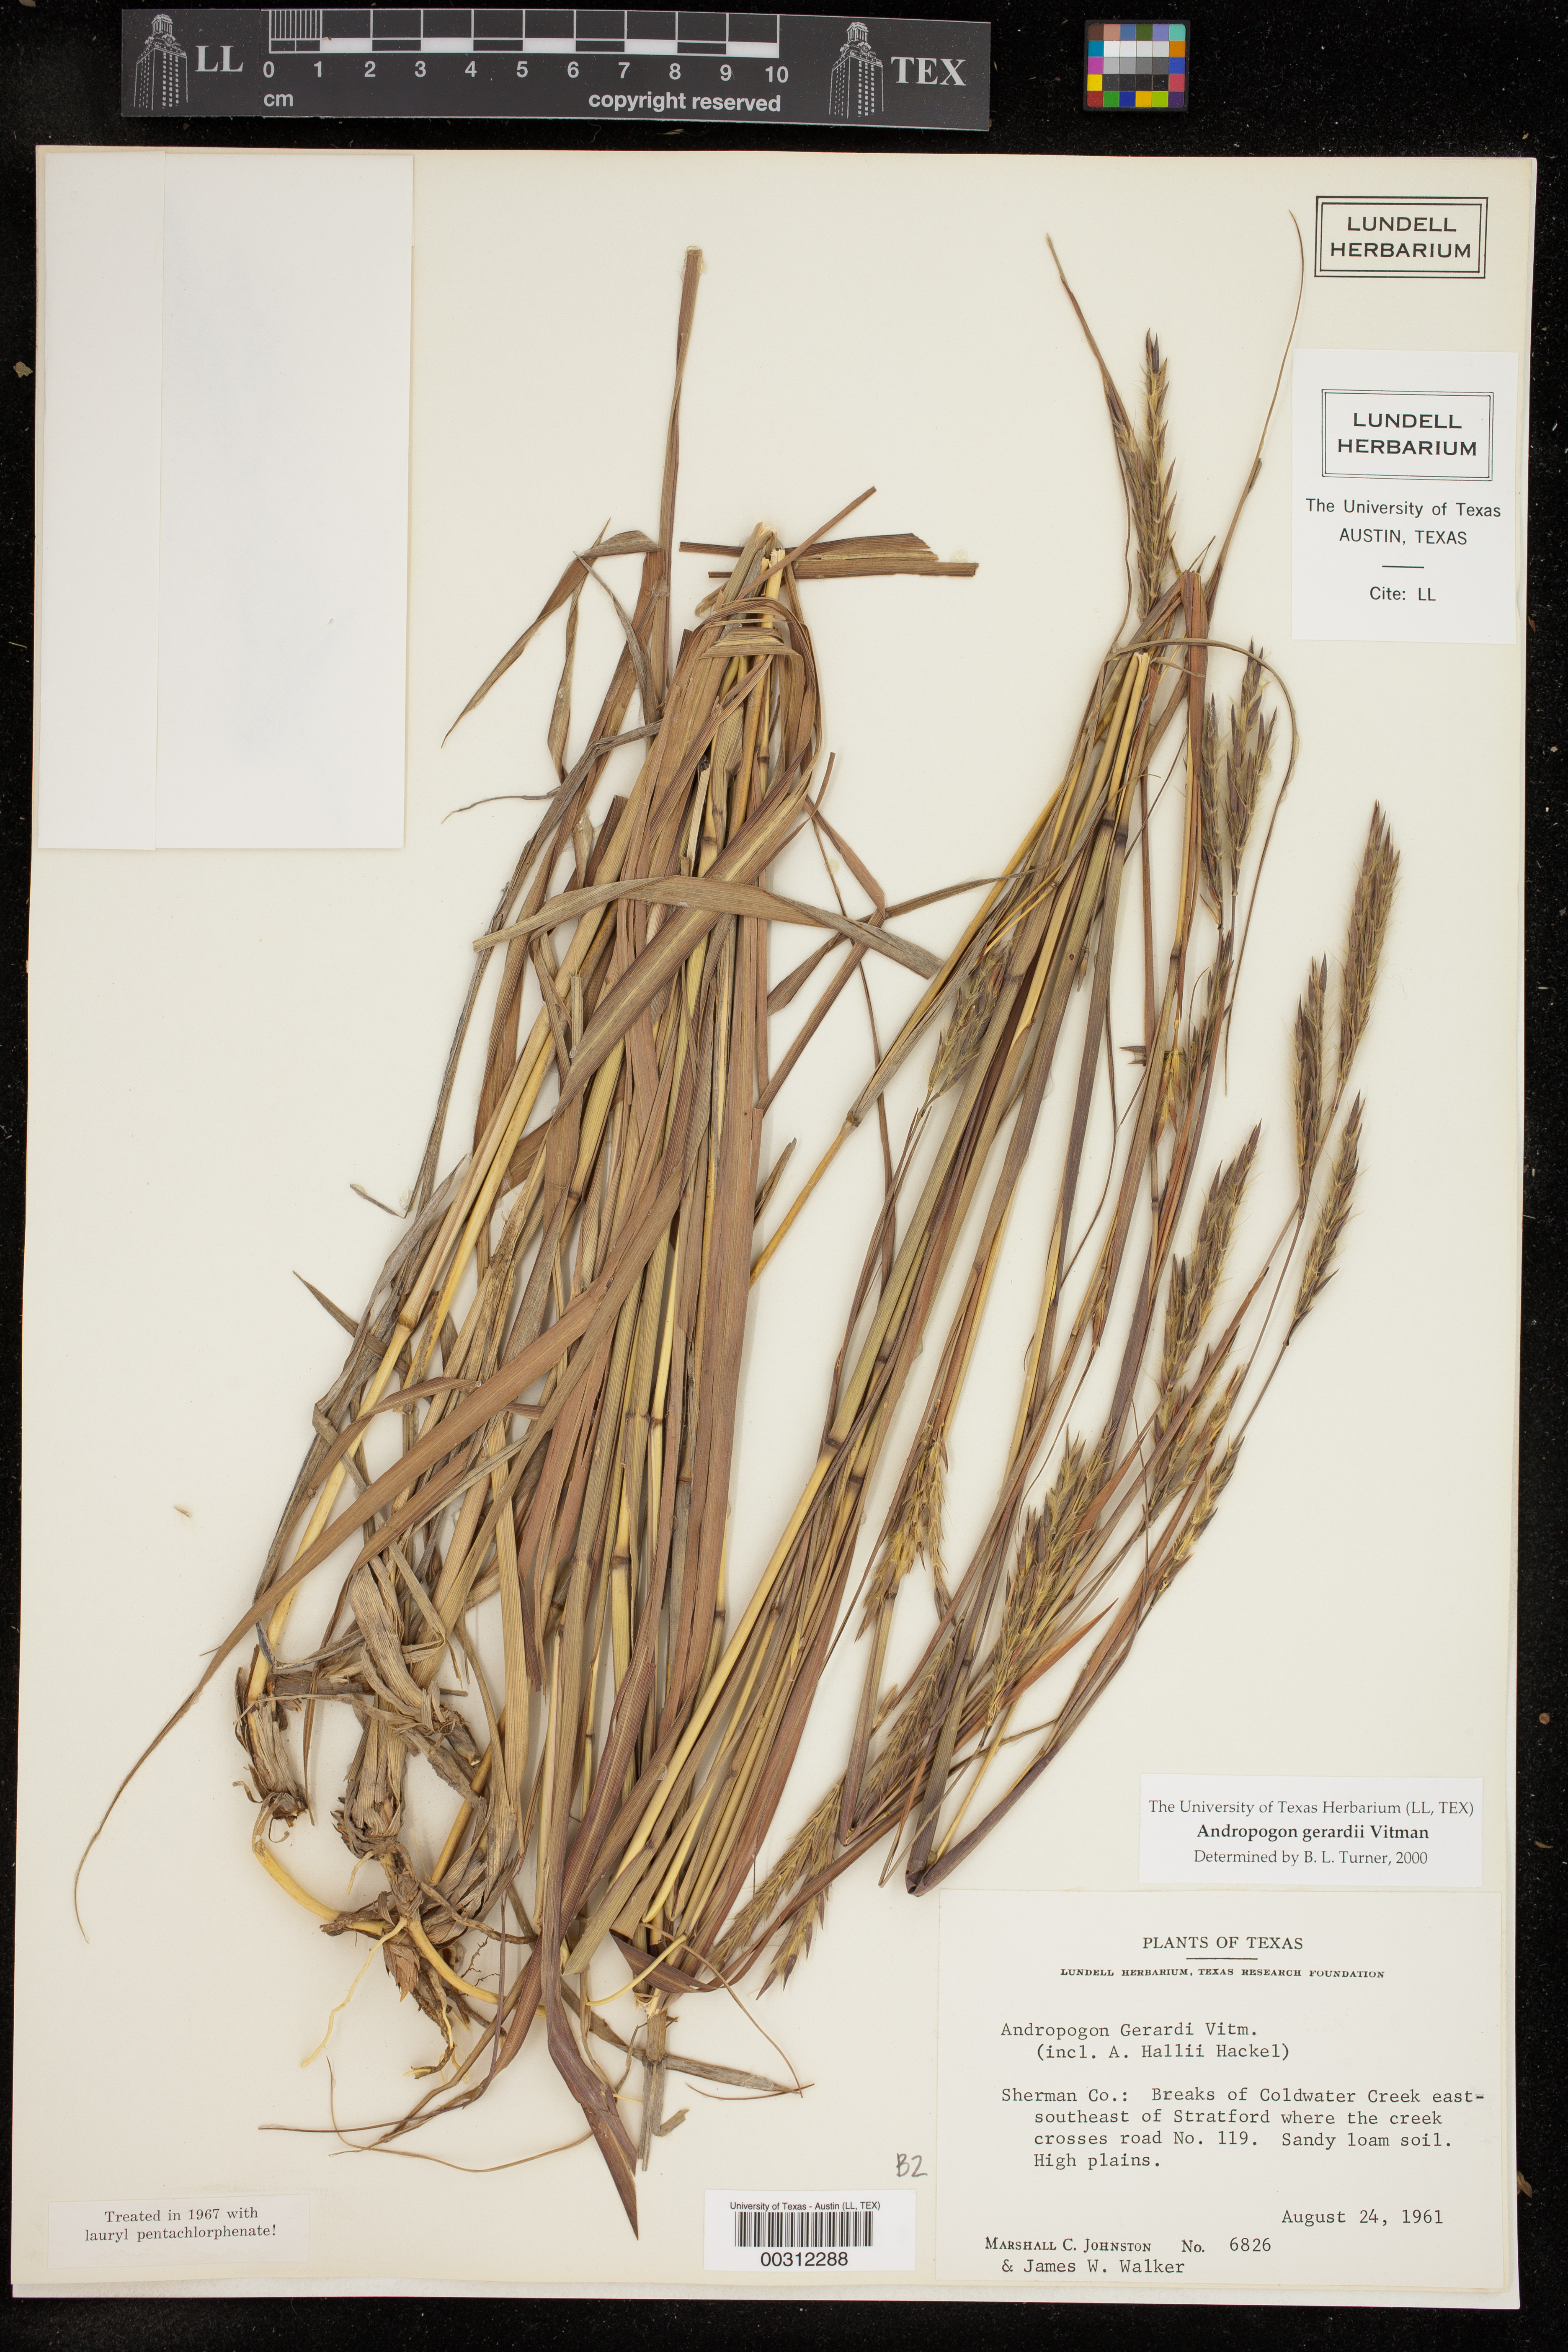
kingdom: Plantae
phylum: Tracheophyta
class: Liliopsida
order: Poales
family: Poaceae
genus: Andropogon
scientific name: Andropogon gerardi
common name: Big bluestem
